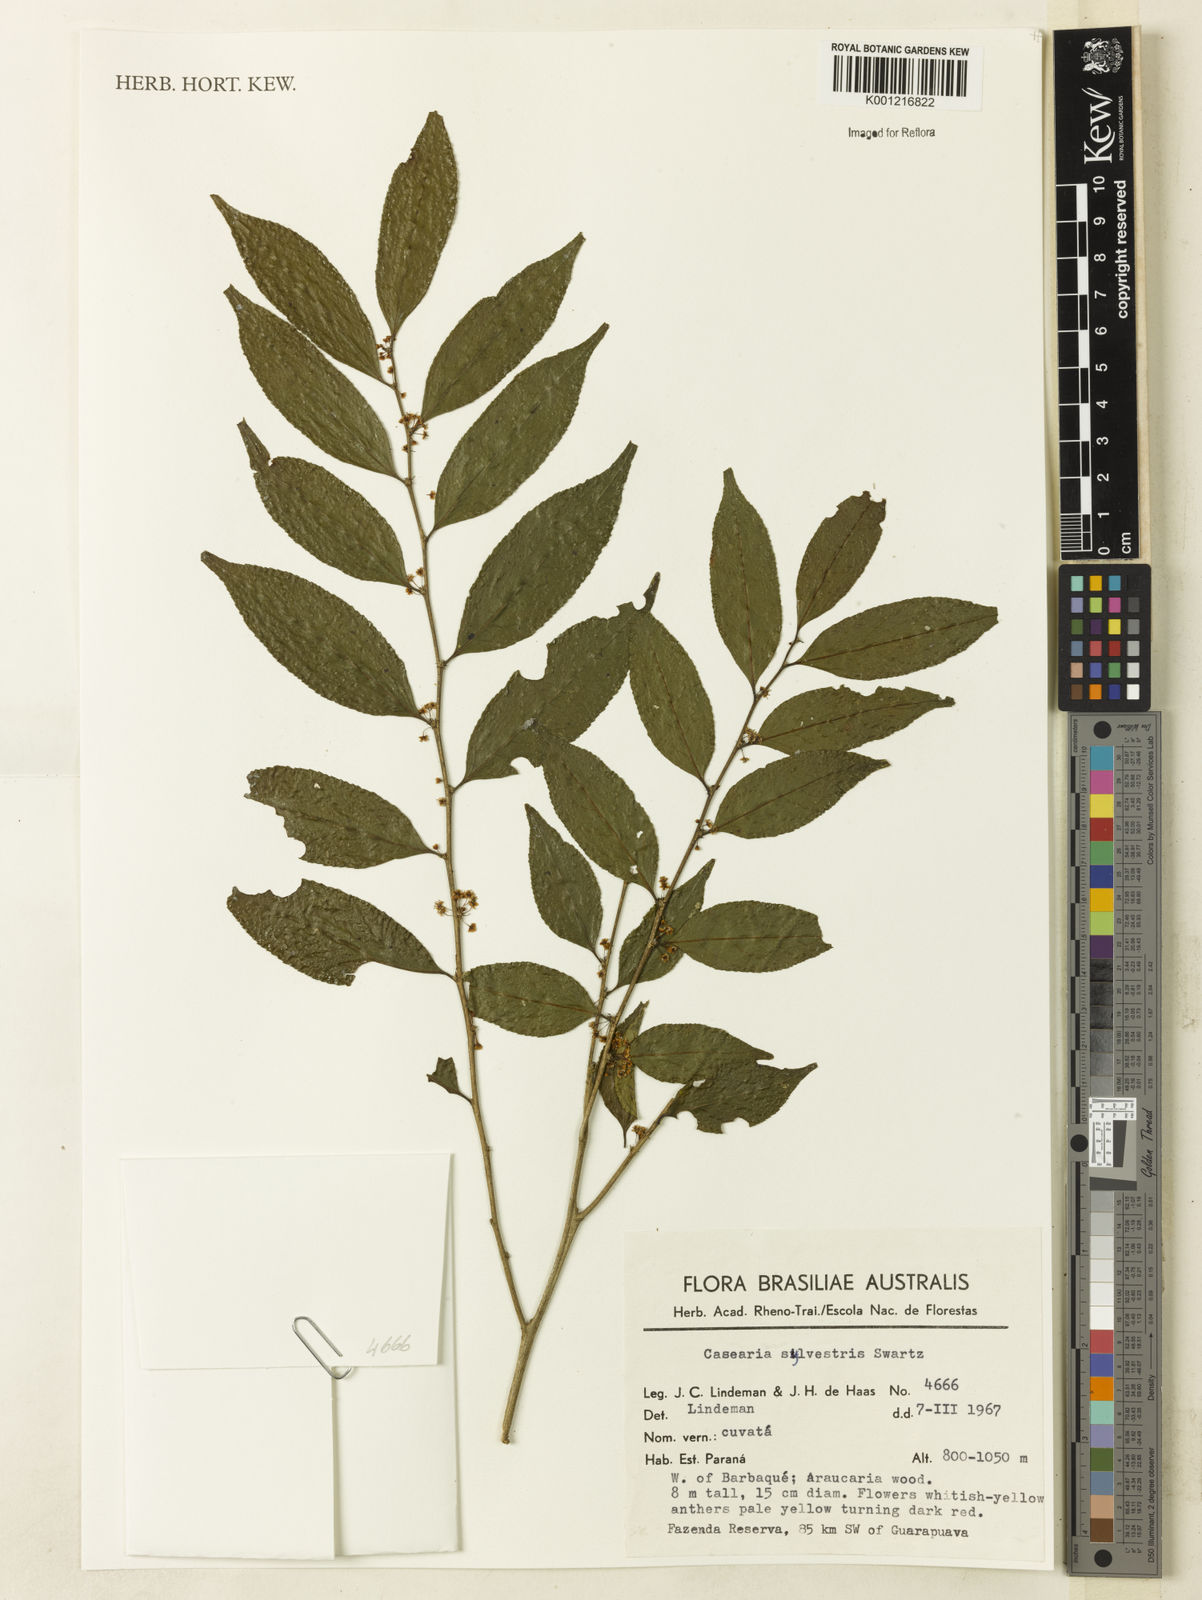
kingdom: Plantae
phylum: Tracheophyta
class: Magnoliopsida
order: Malpighiales
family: Salicaceae
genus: Casearia
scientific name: Casearia sylvestris
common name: Wild sage
